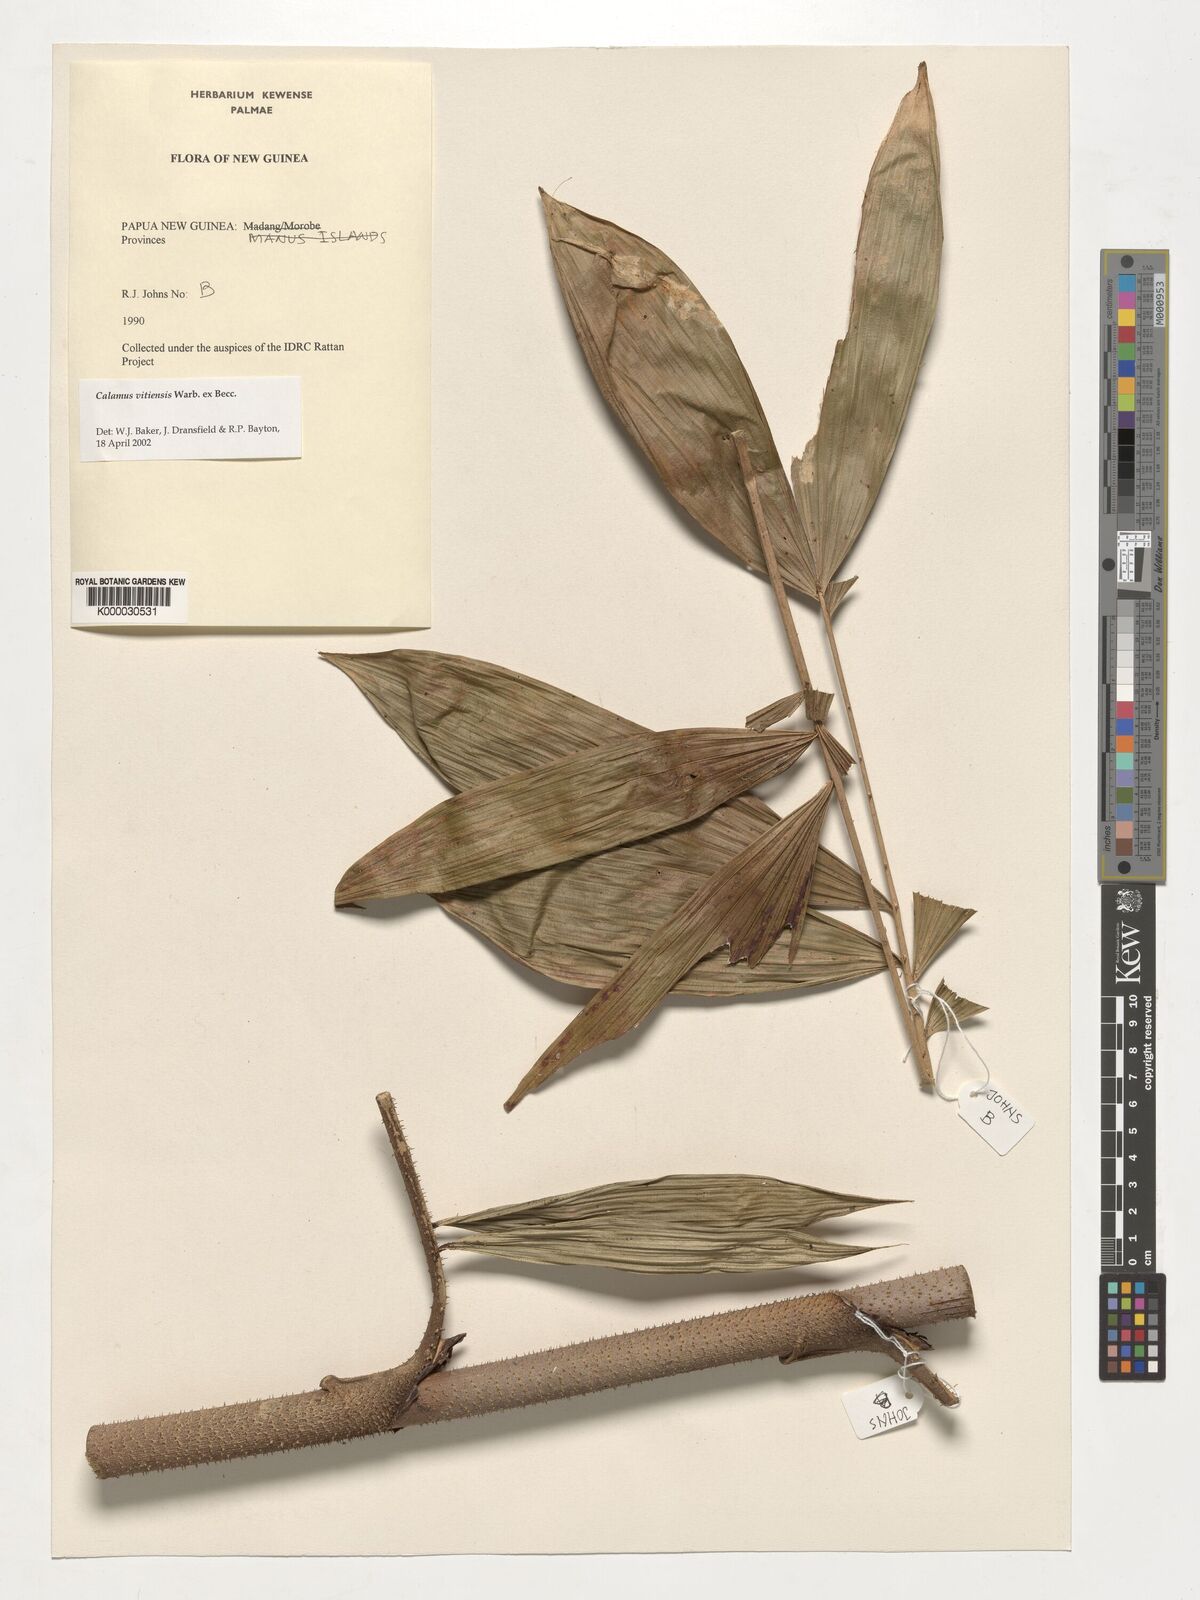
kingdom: Plantae
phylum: Tracheophyta
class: Liliopsida
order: Arecales
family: Arecaceae
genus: Calamus
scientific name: Calamus vitiensis
